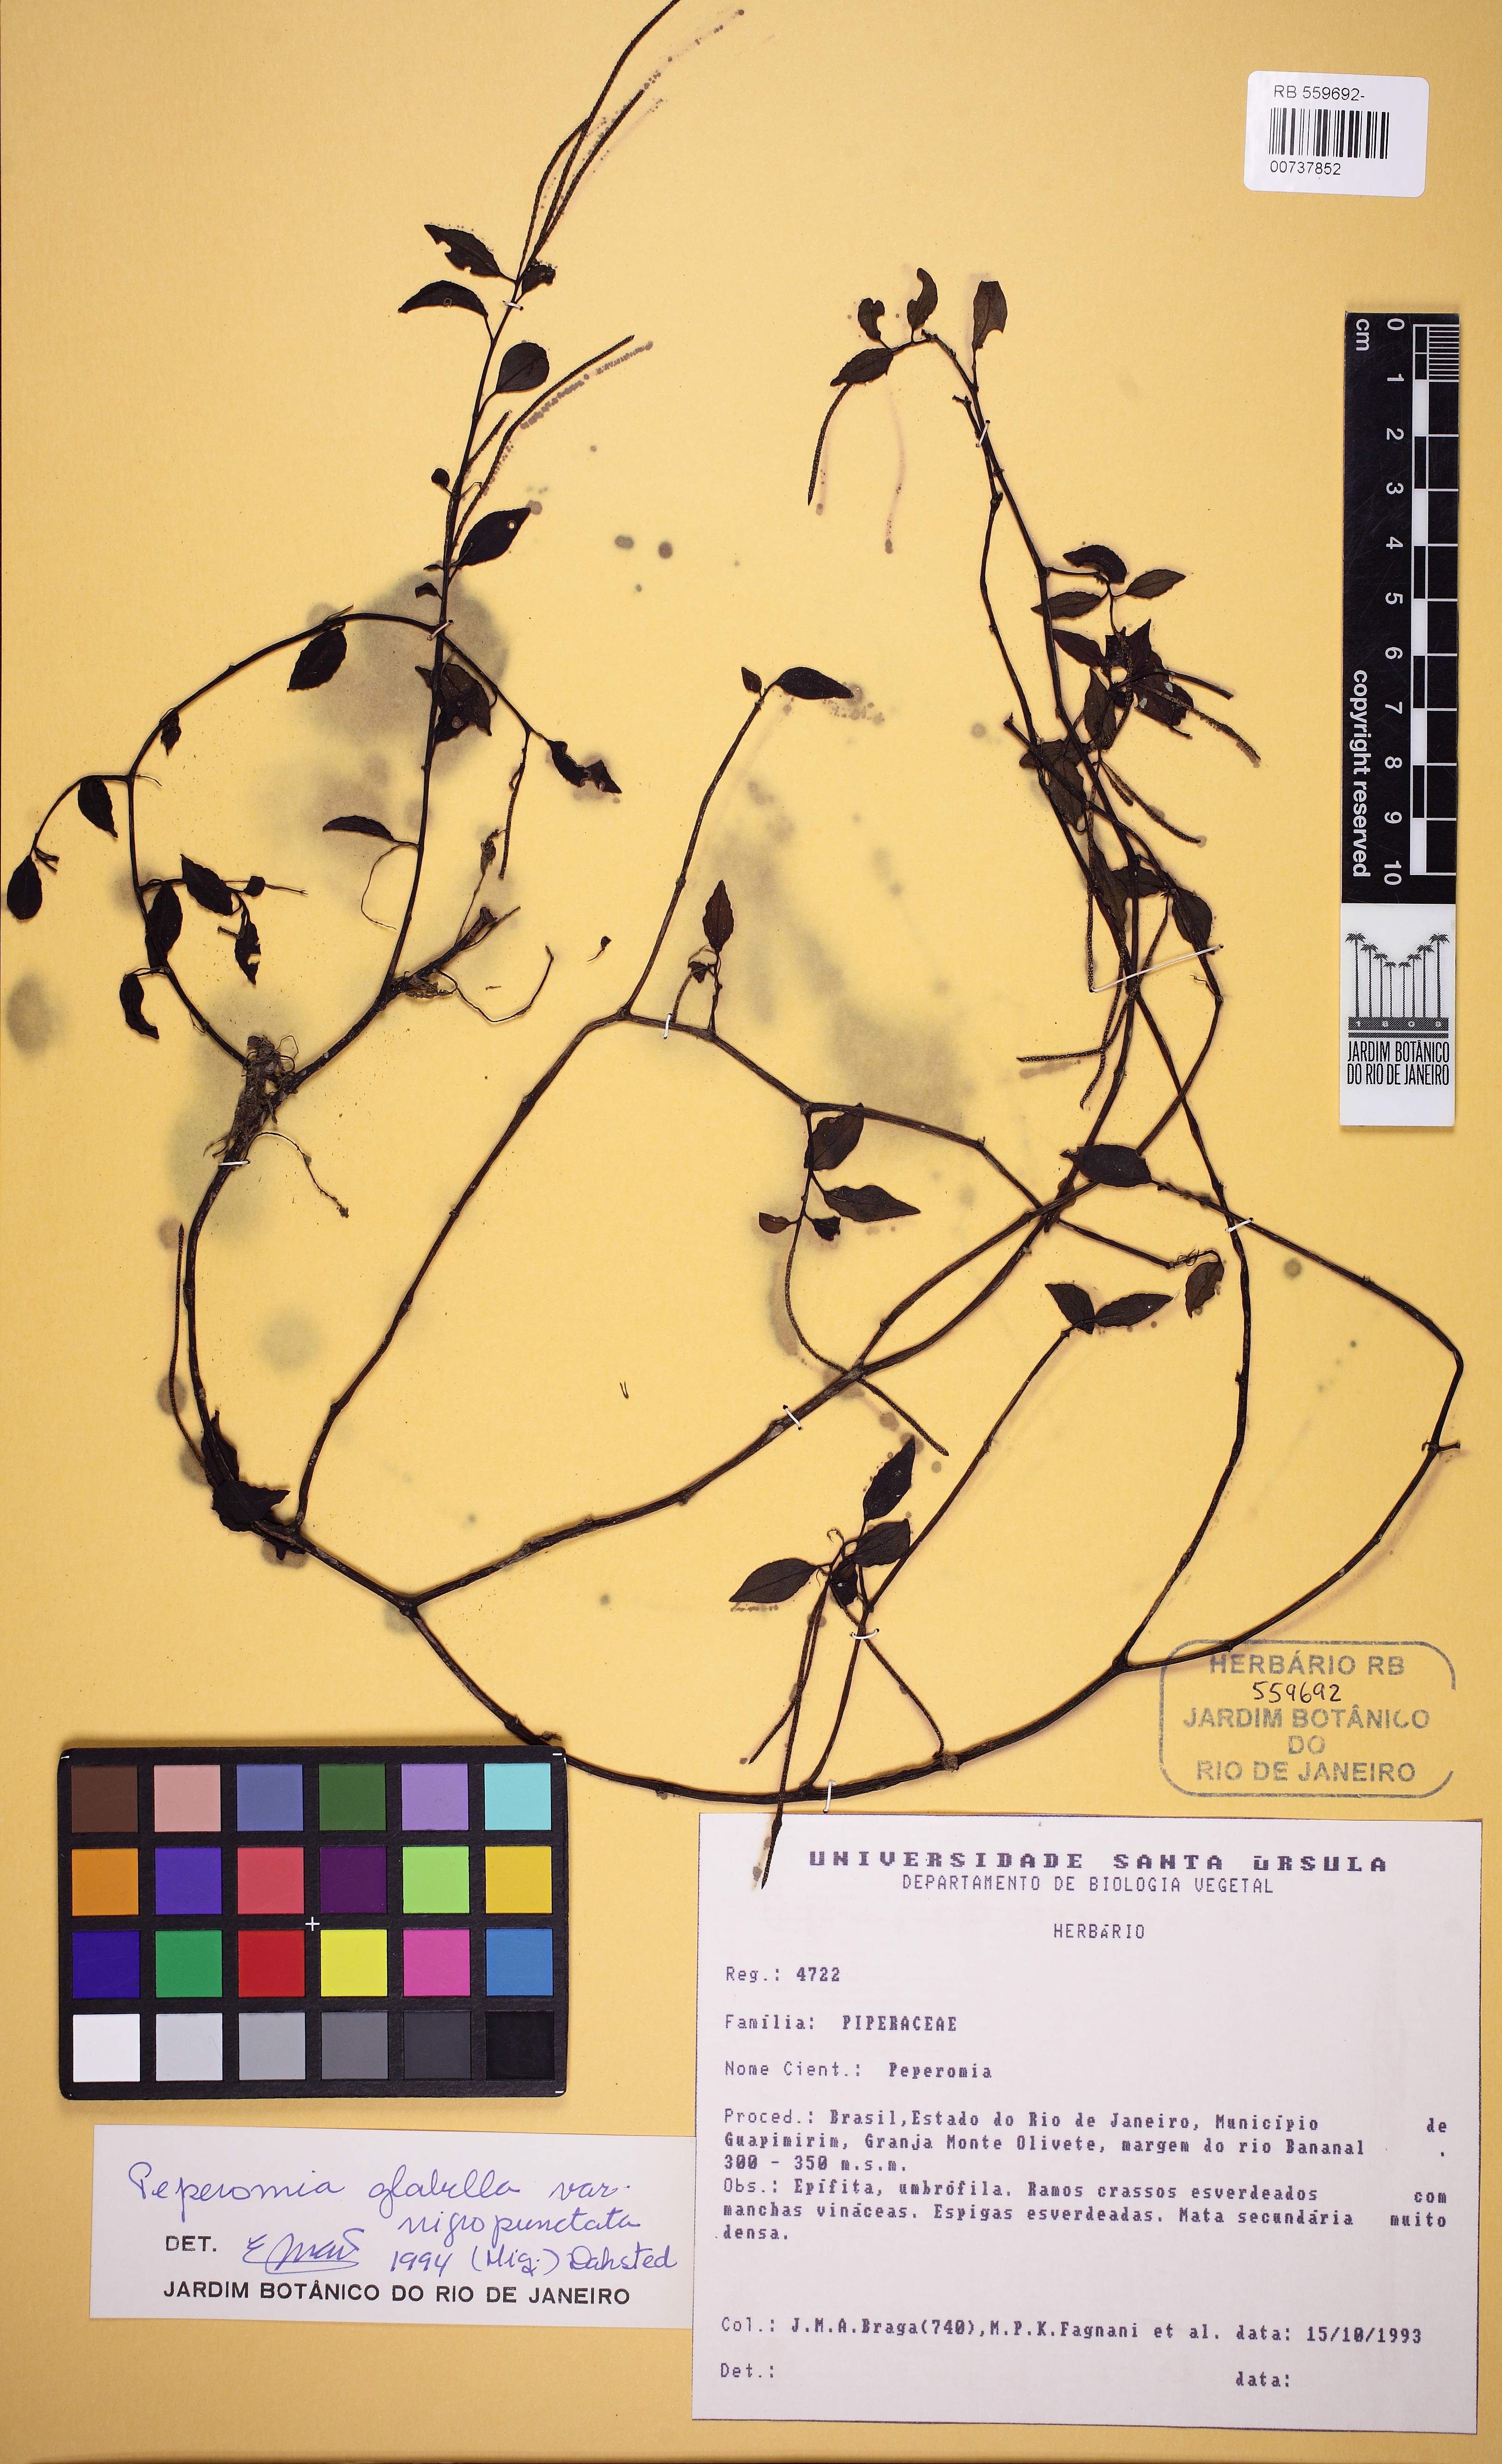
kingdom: Plantae
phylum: Tracheophyta
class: Magnoliopsida
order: Piperales
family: Piperaceae
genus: Peperomia
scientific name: Peperomia
